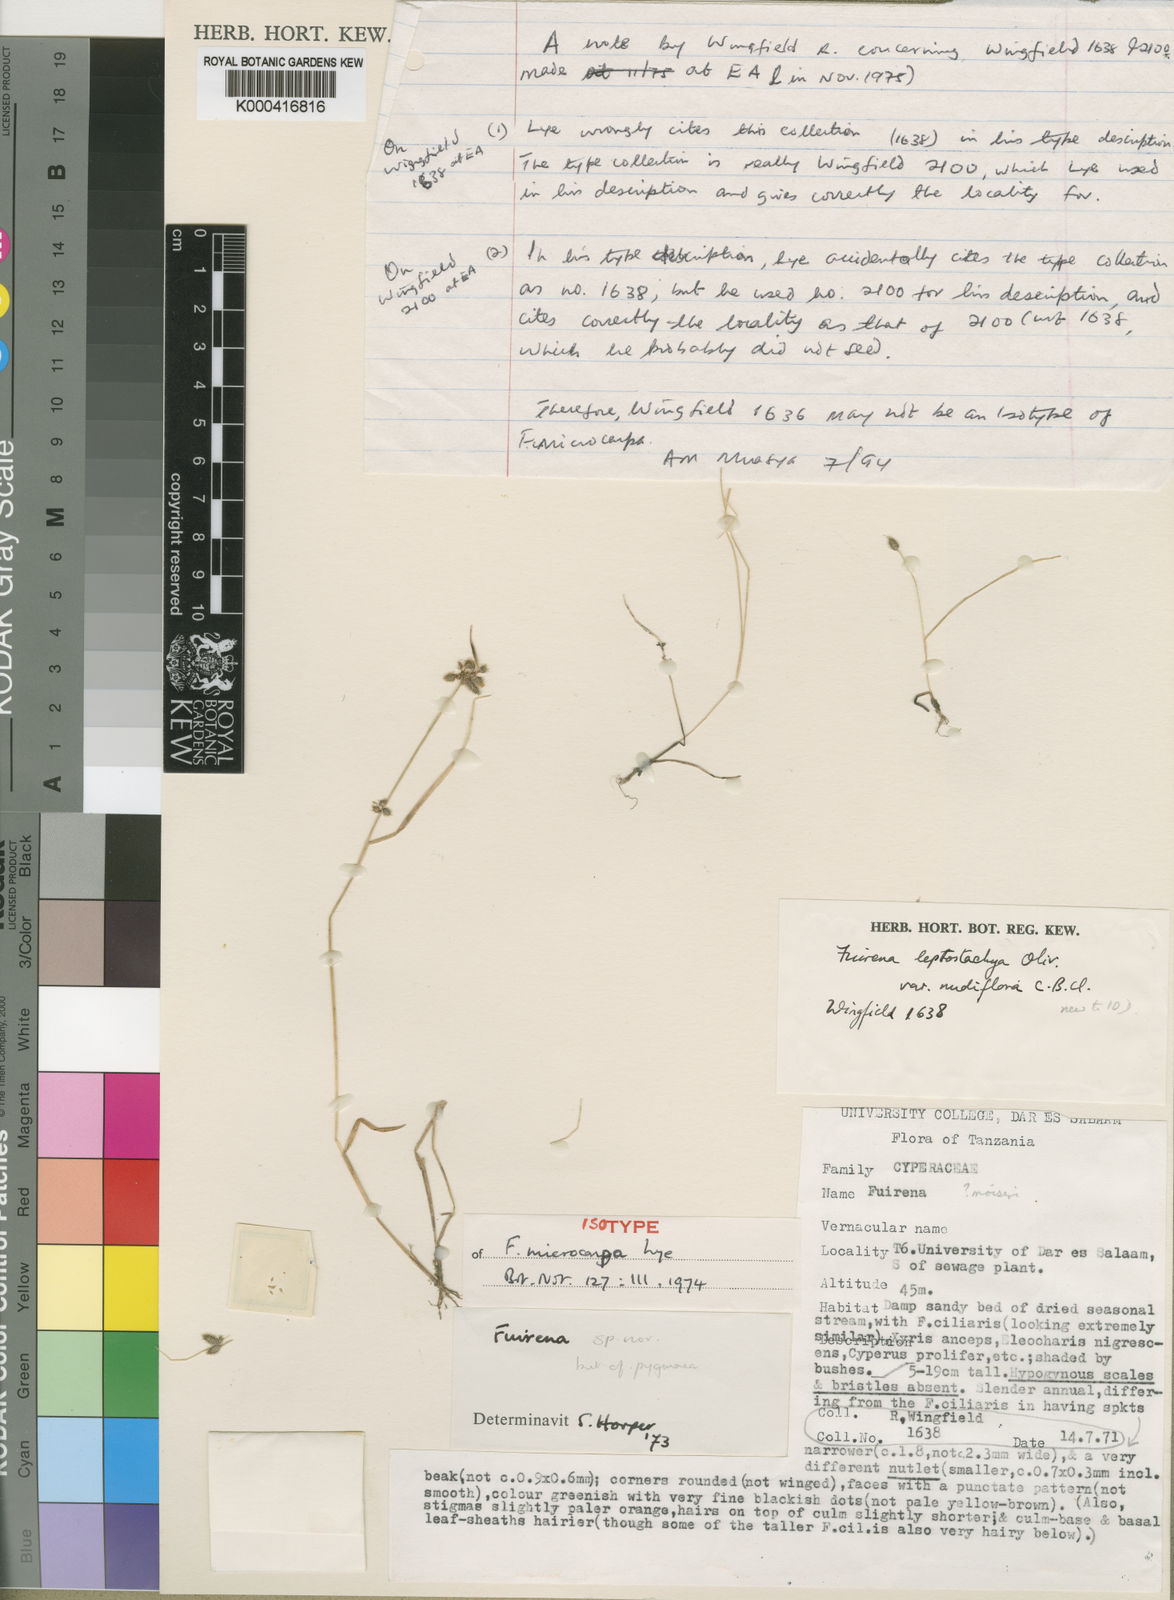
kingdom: Plantae
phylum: Tracheophyta
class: Liliopsida
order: Poales
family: Cyperaceae
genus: Fuirena
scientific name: Fuirena microcarpa
